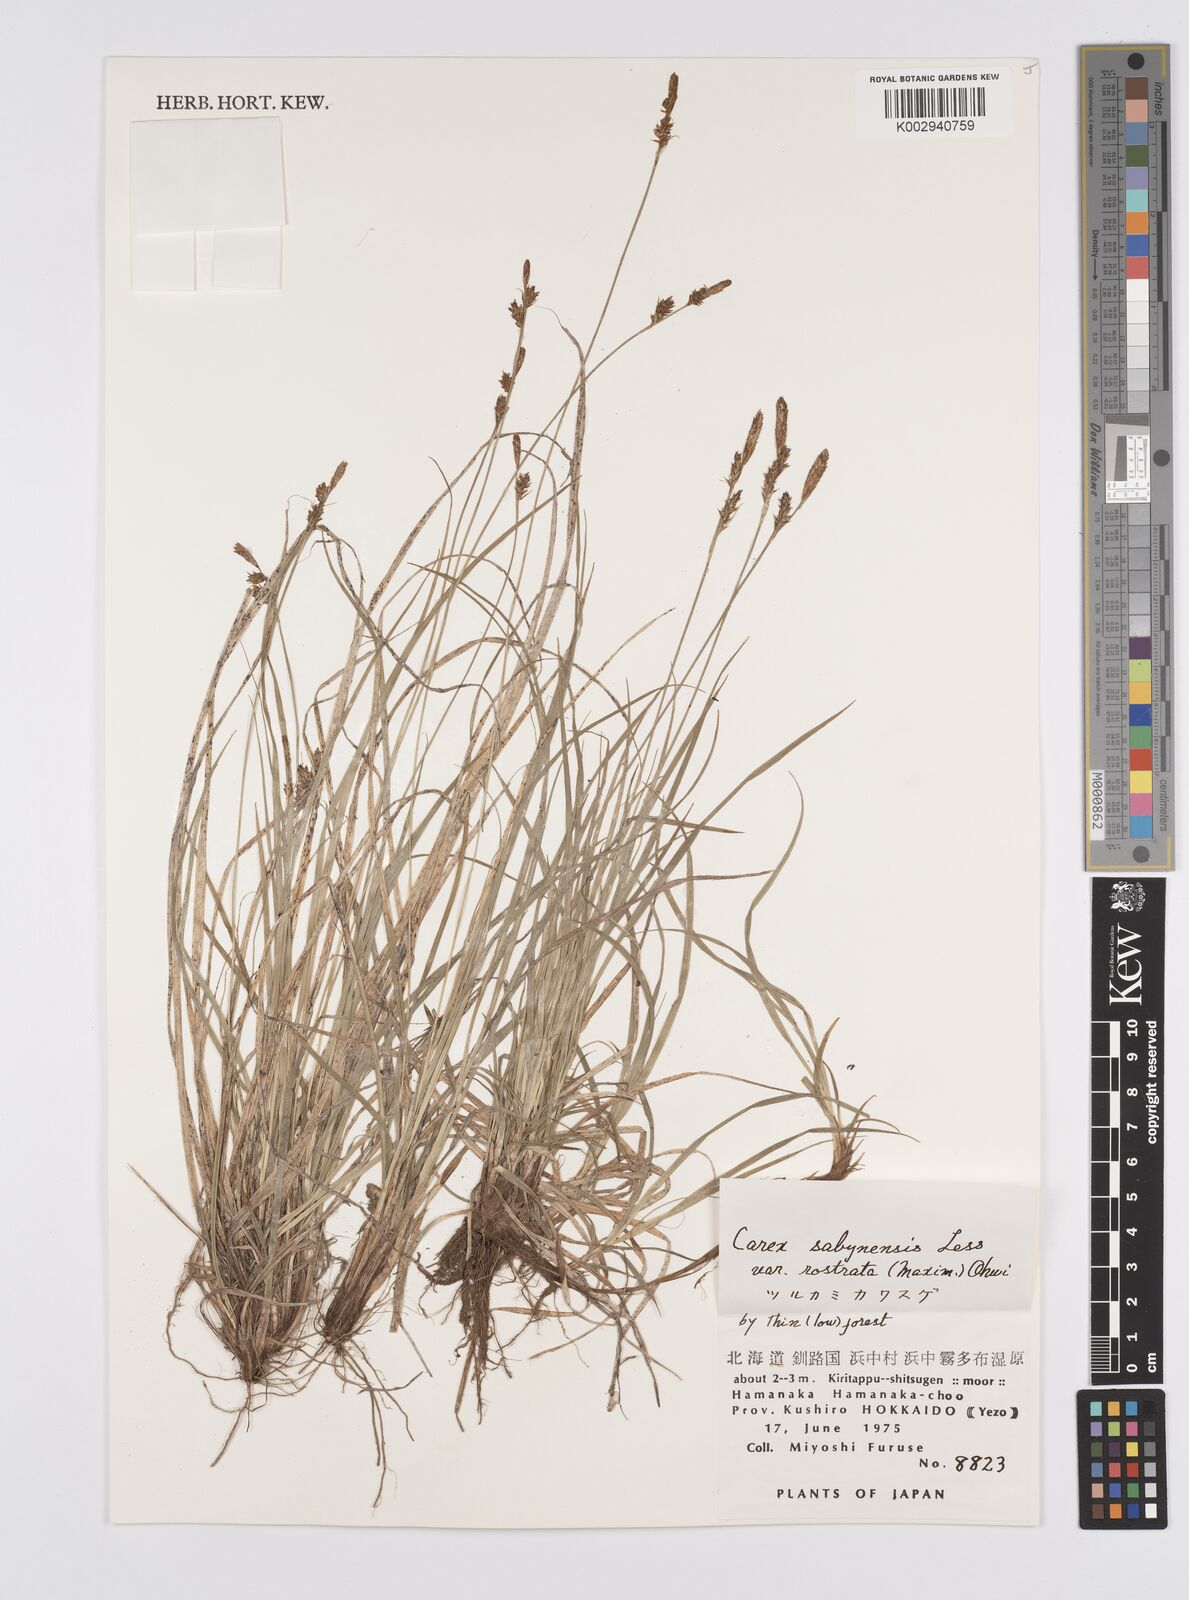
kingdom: Plantae
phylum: Tracheophyta
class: Liliopsida
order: Poales
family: Cyperaceae
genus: Carex
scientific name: Carex umbrosa
